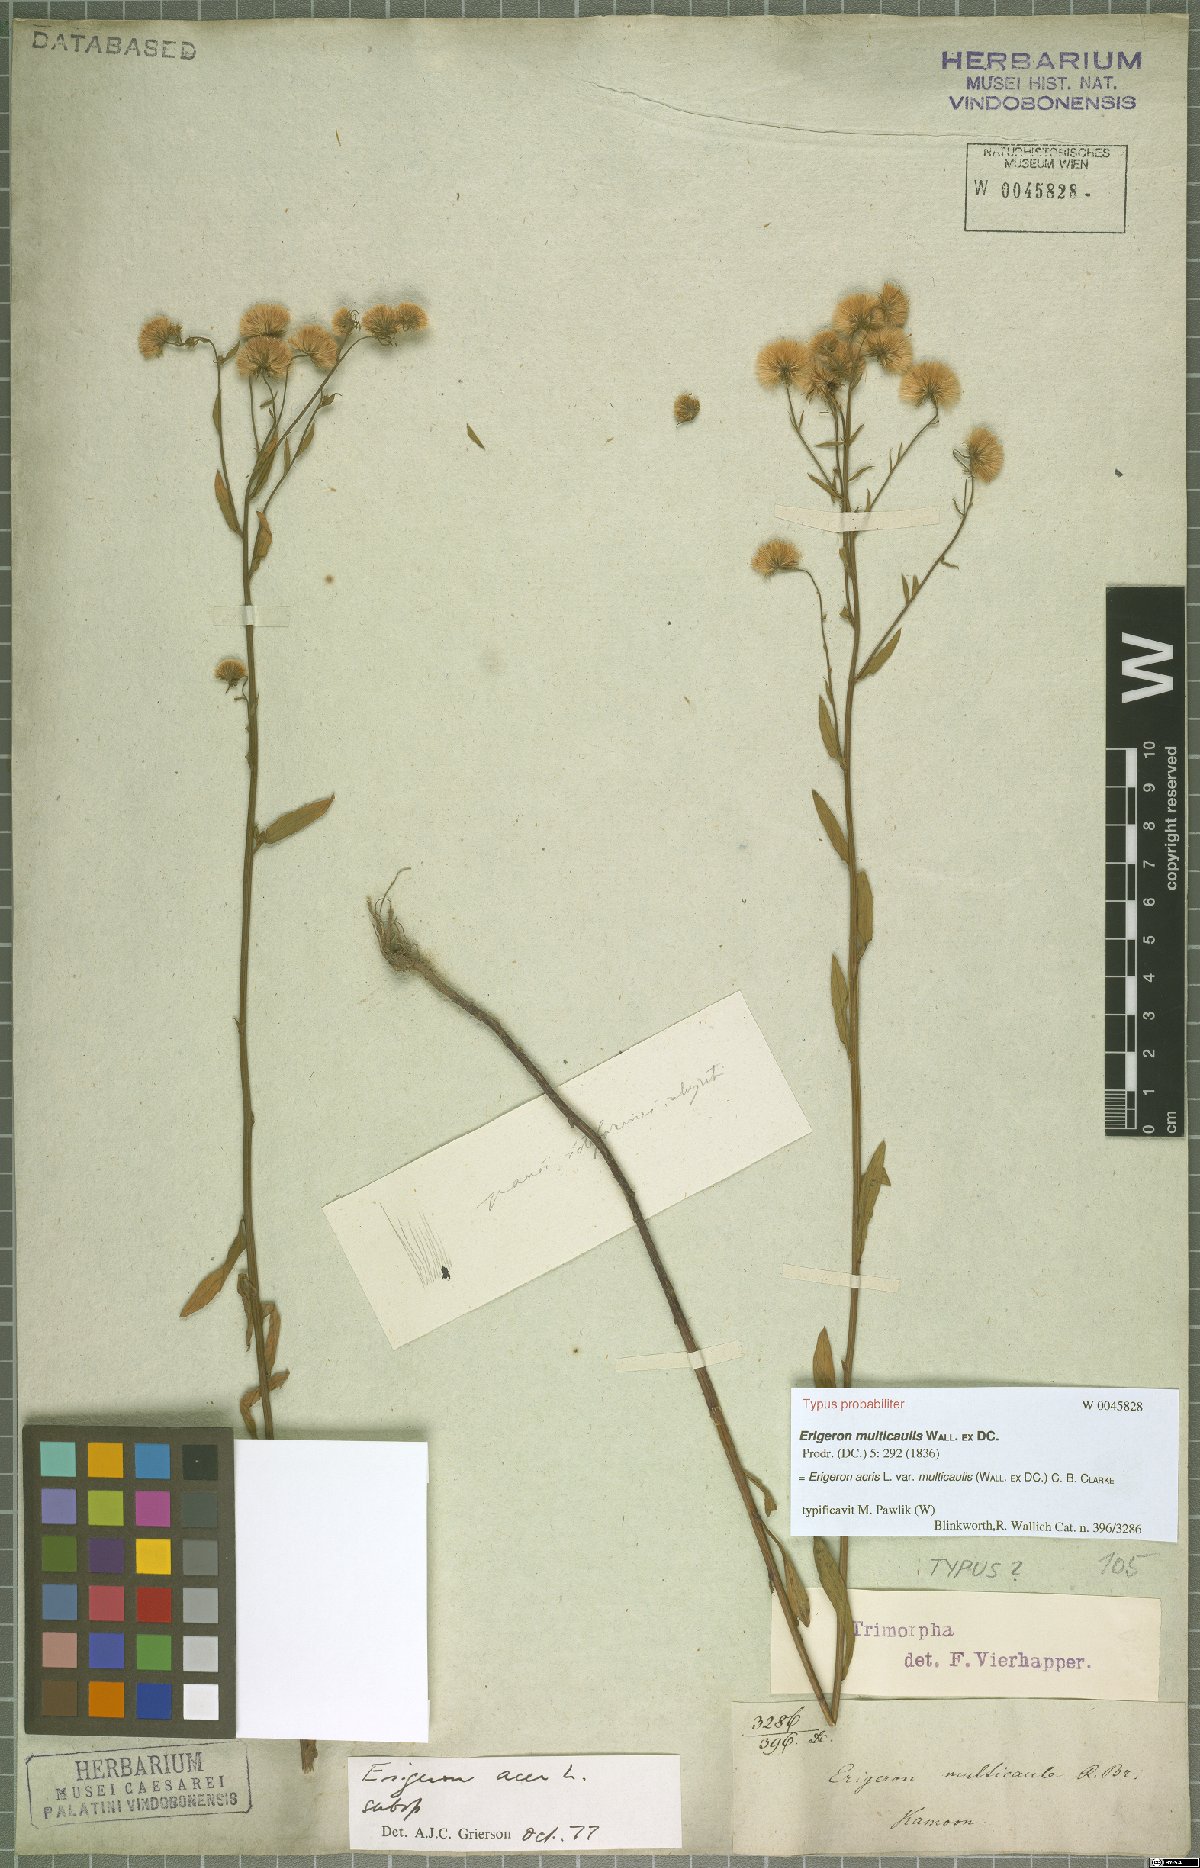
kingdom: Plantae
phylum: Tracheophyta
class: Magnoliopsida
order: Asterales
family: Asteraceae
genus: Erigeron
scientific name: Erigeron acris
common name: Blue fleabane
